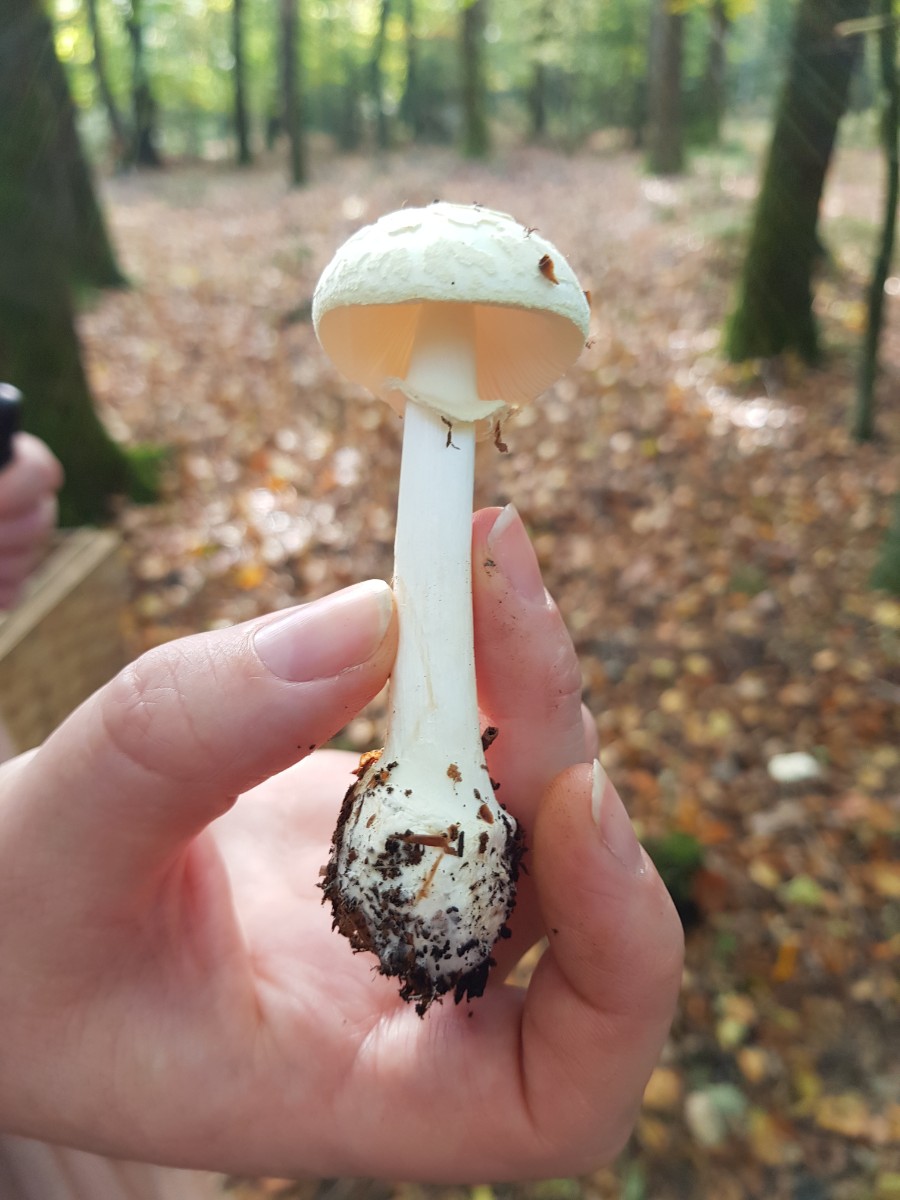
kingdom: Fungi
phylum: Basidiomycota
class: Agaricomycetes
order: Agaricales
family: Amanitaceae
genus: Amanita
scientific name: Amanita citrina
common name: kugleknoldet fluesvamp
